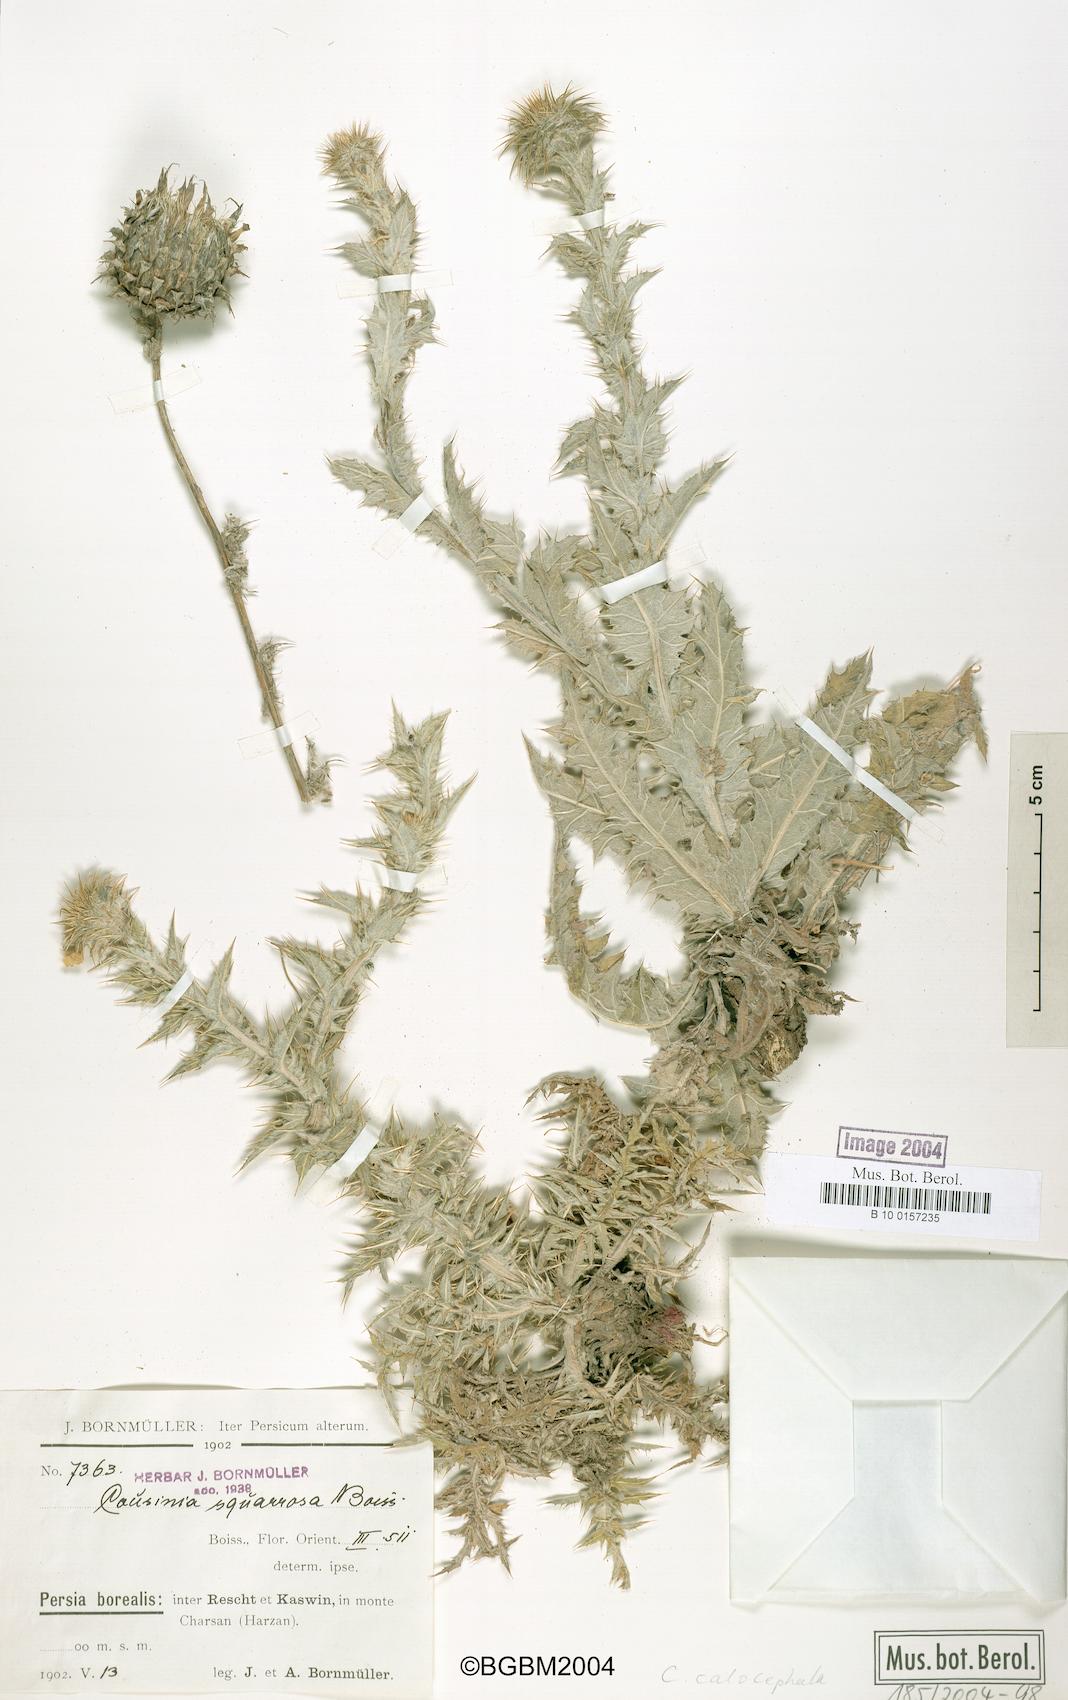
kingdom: Plantae
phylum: Tracheophyta
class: Magnoliopsida
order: Asterales
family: Asteraceae
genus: Cousinia
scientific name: Cousinia calocephala
